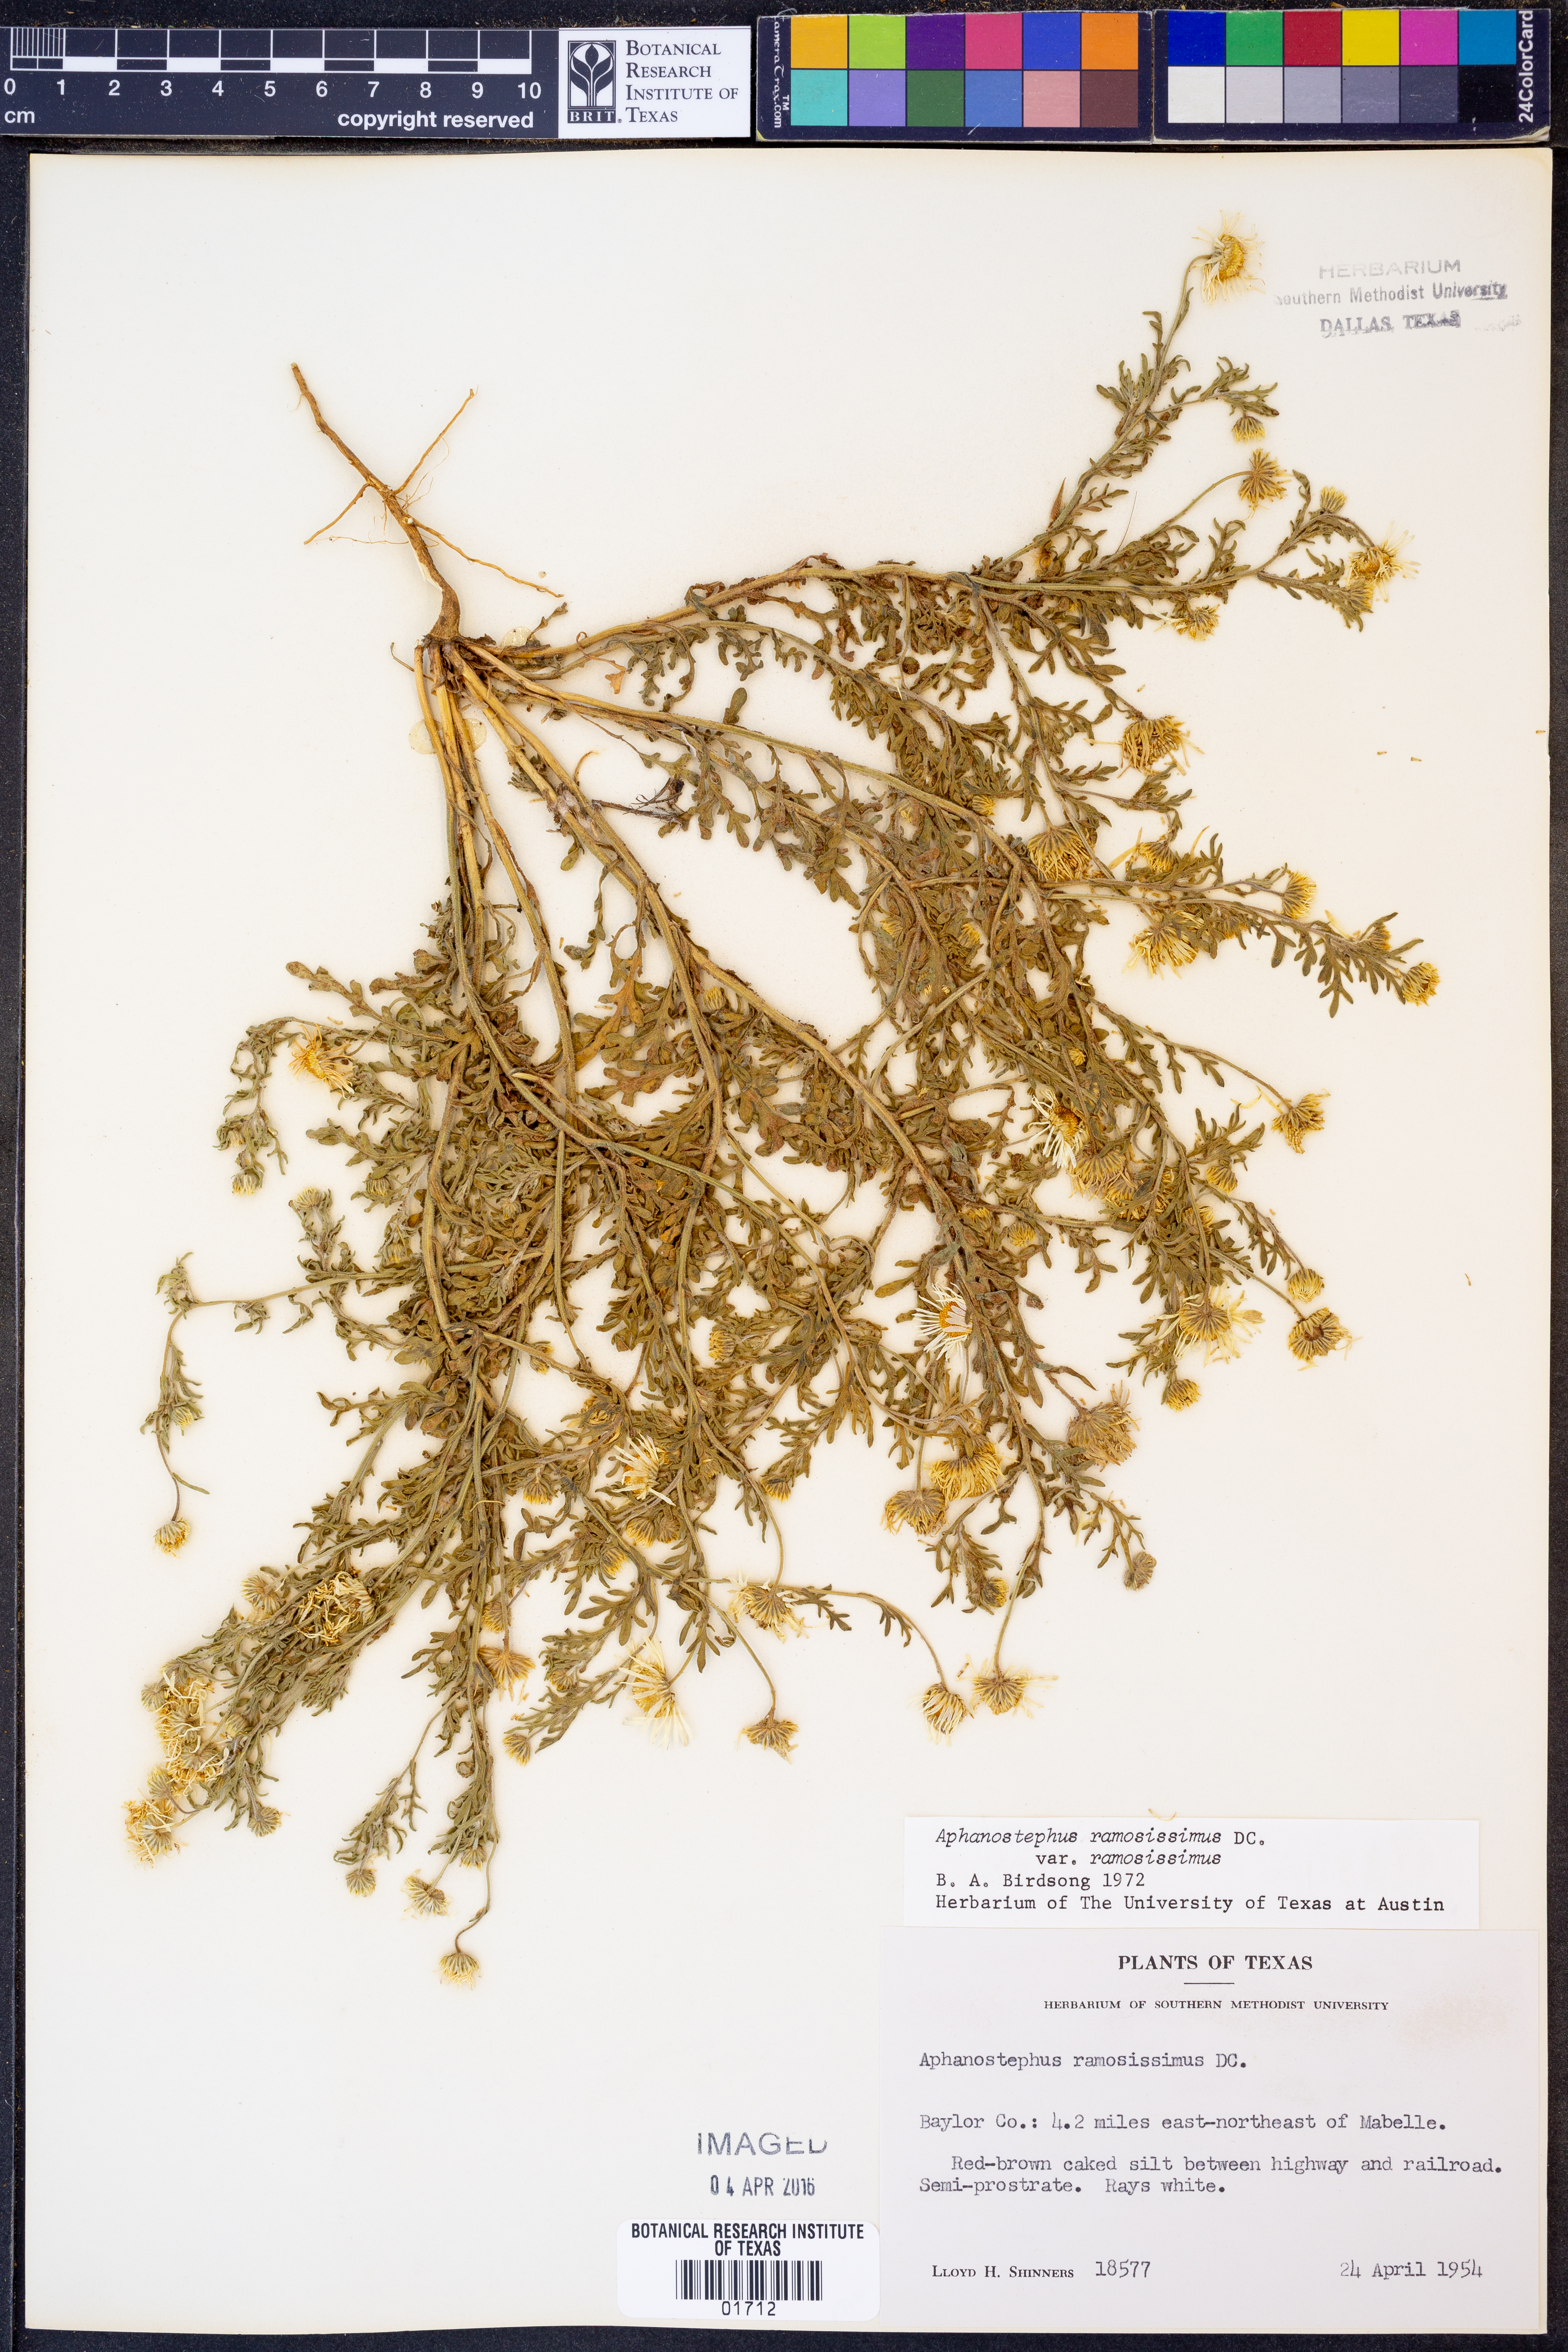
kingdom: Plantae
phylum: Tracheophyta
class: Magnoliopsida
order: Asterales
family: Asteraceae
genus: Aphanostephus
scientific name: Aphanostephus ramosissimus
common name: Plains lazy daisy
